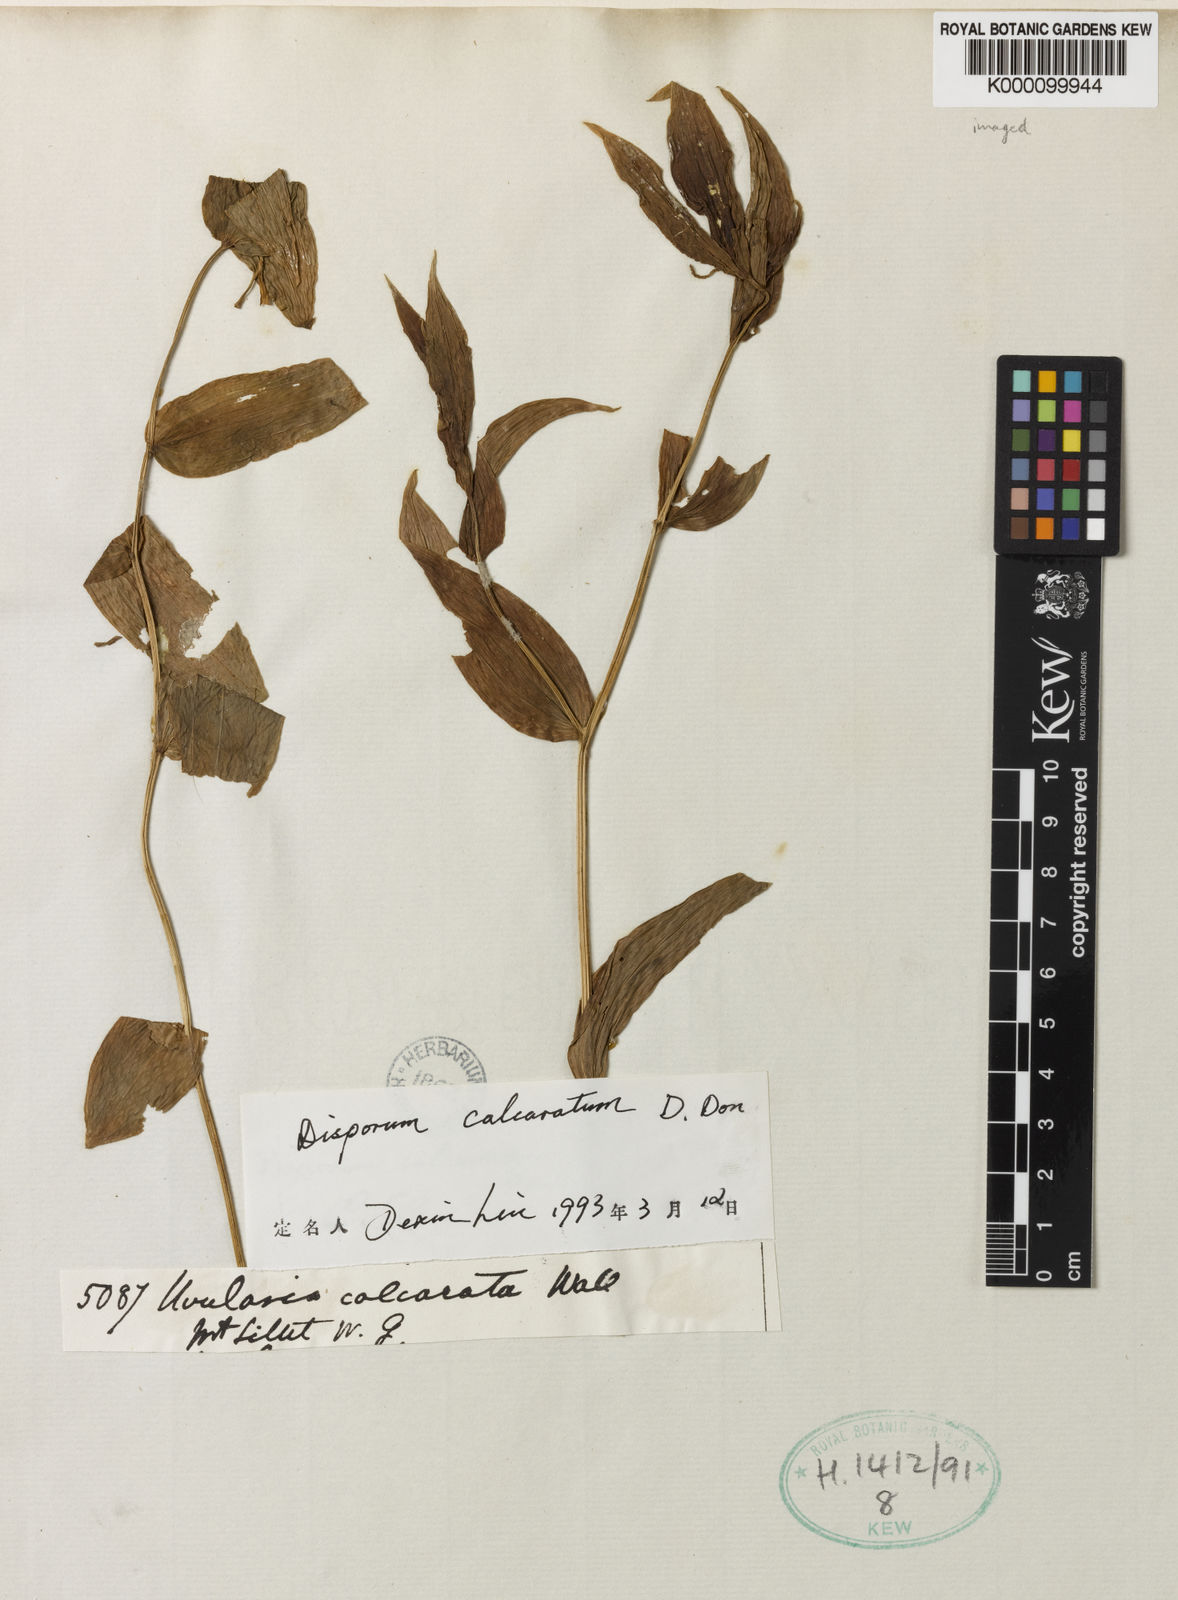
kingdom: Plantae
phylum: Tracheophyta
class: Liliopsida
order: Liliales
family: Colchicaceae
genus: Disporum
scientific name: Disporum calcaratum
